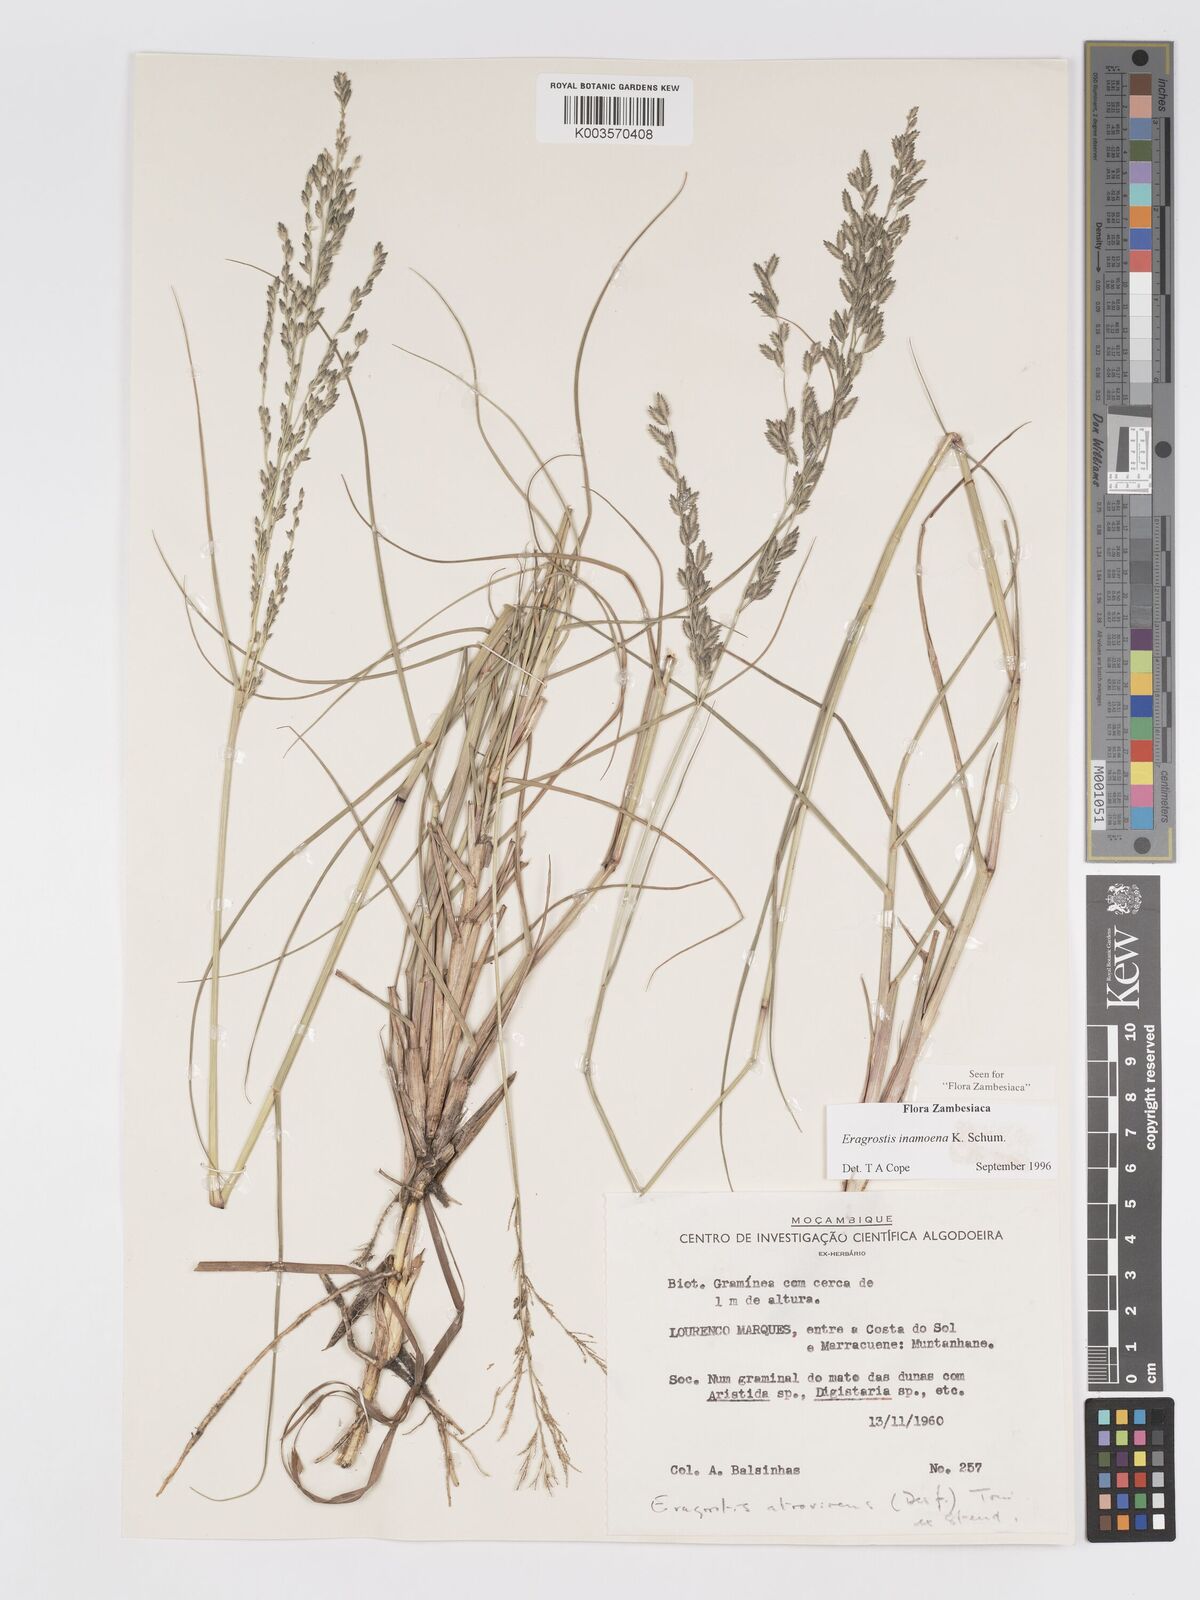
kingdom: Plantae
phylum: Tracheophyta
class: Liliopsida
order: Poales
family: Poaceae
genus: Eragrostis
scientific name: Eragrostis inamoena
